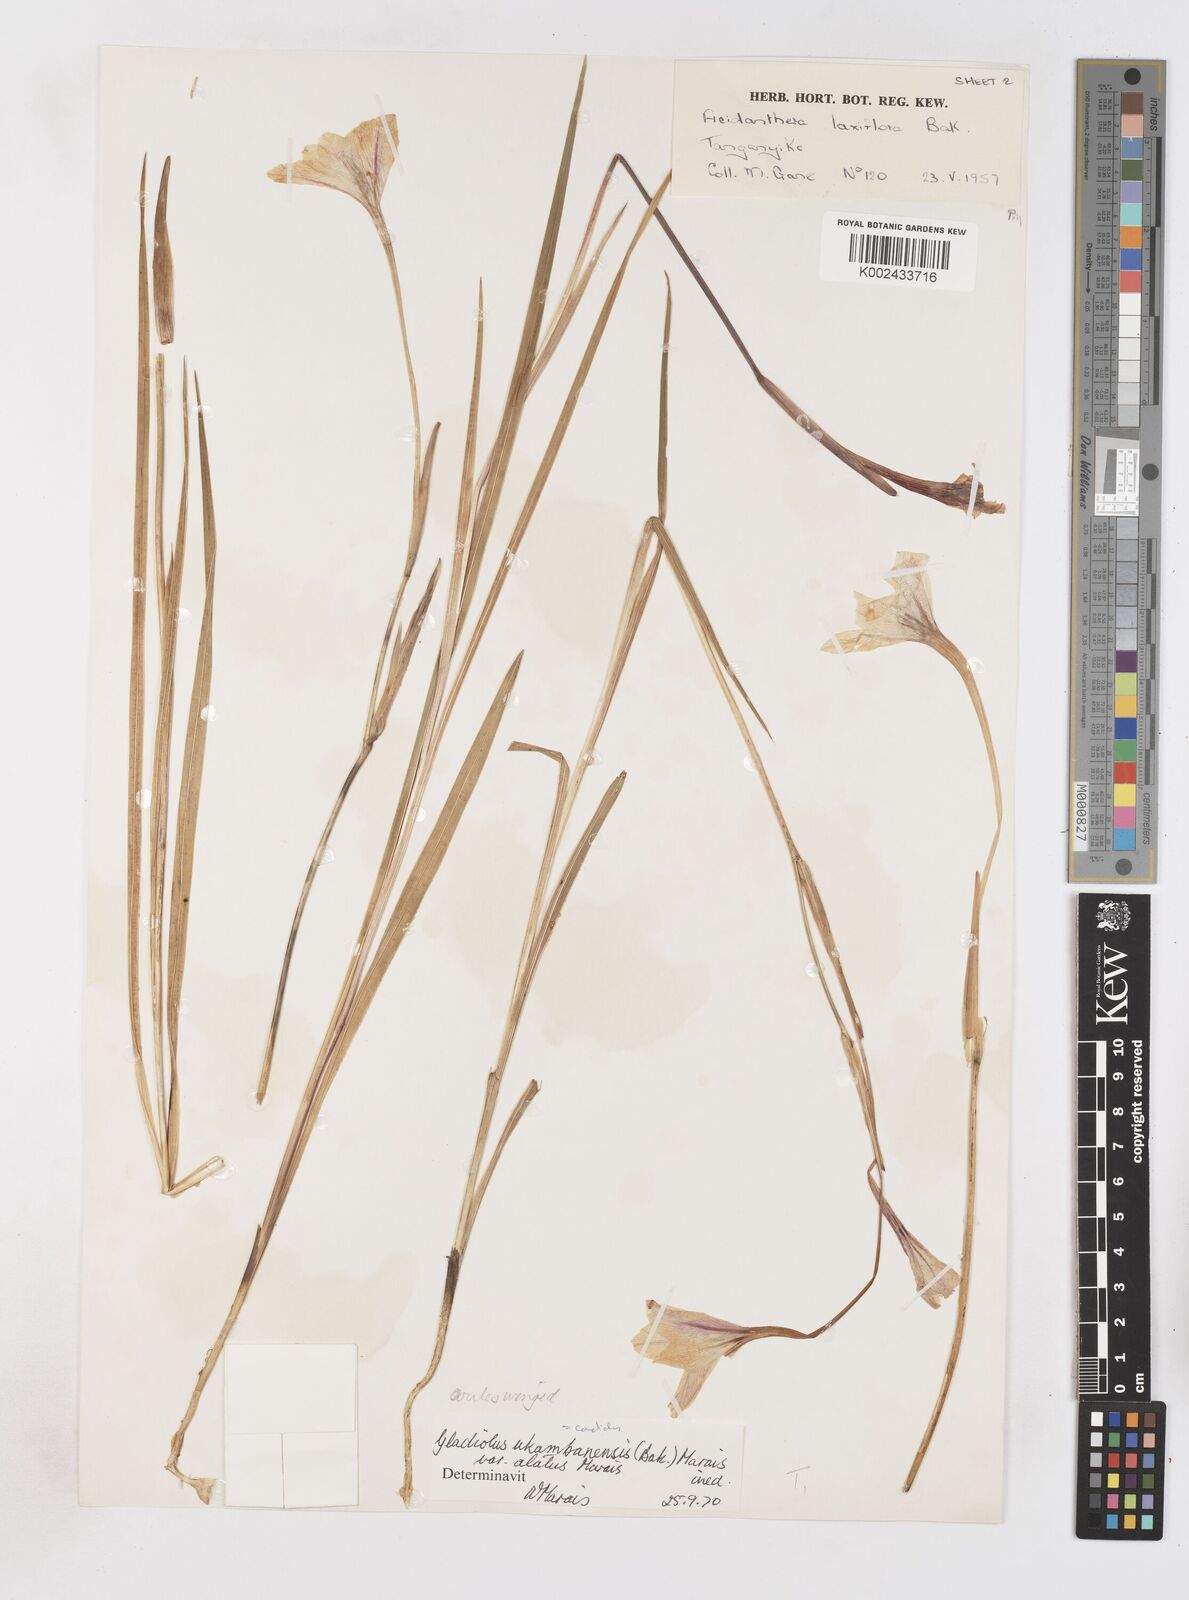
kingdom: Plantae
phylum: Tracheophyta
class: Liliopsida
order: Asparagales
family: Iridaceae
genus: Gladiolus
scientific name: Gladiolus candidus
